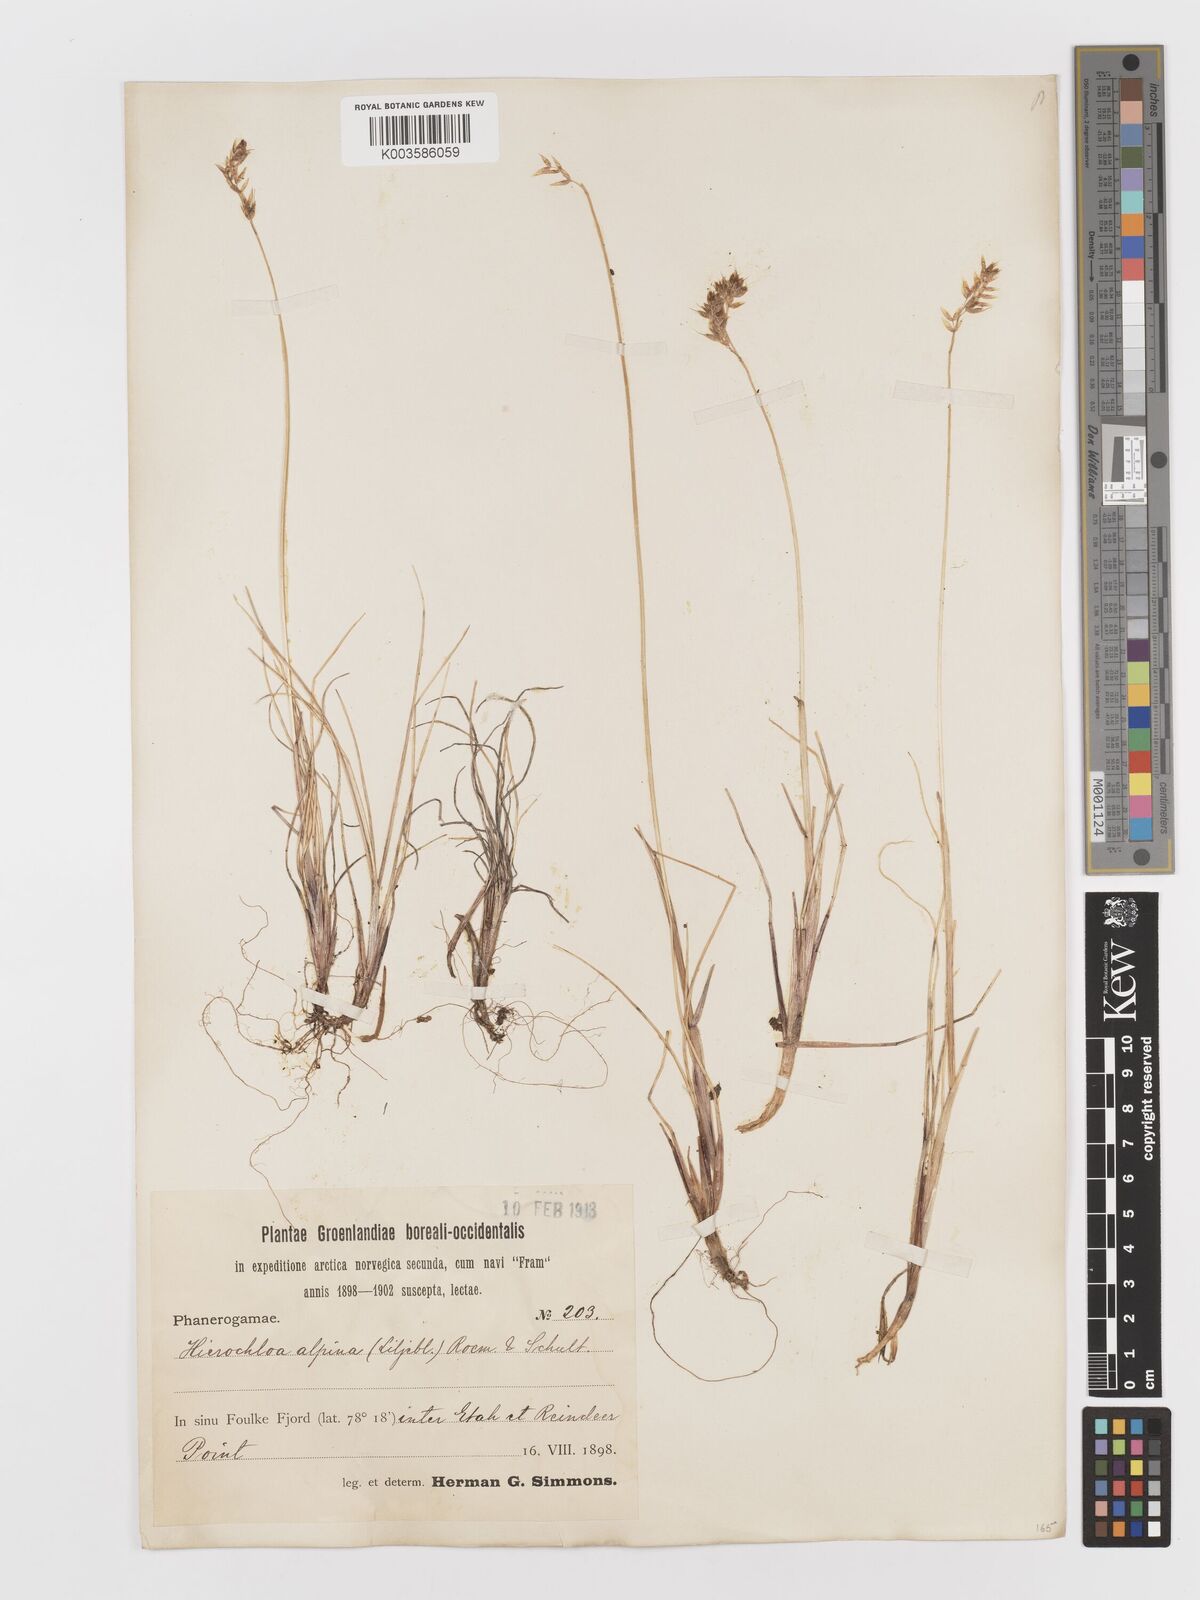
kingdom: Plantae
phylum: Tracheophyta
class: Liliopsida
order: Poales
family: Poaceae
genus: Anthoxanthum
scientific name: Anthoxanthum monticola
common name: Alpine sweetgrass
